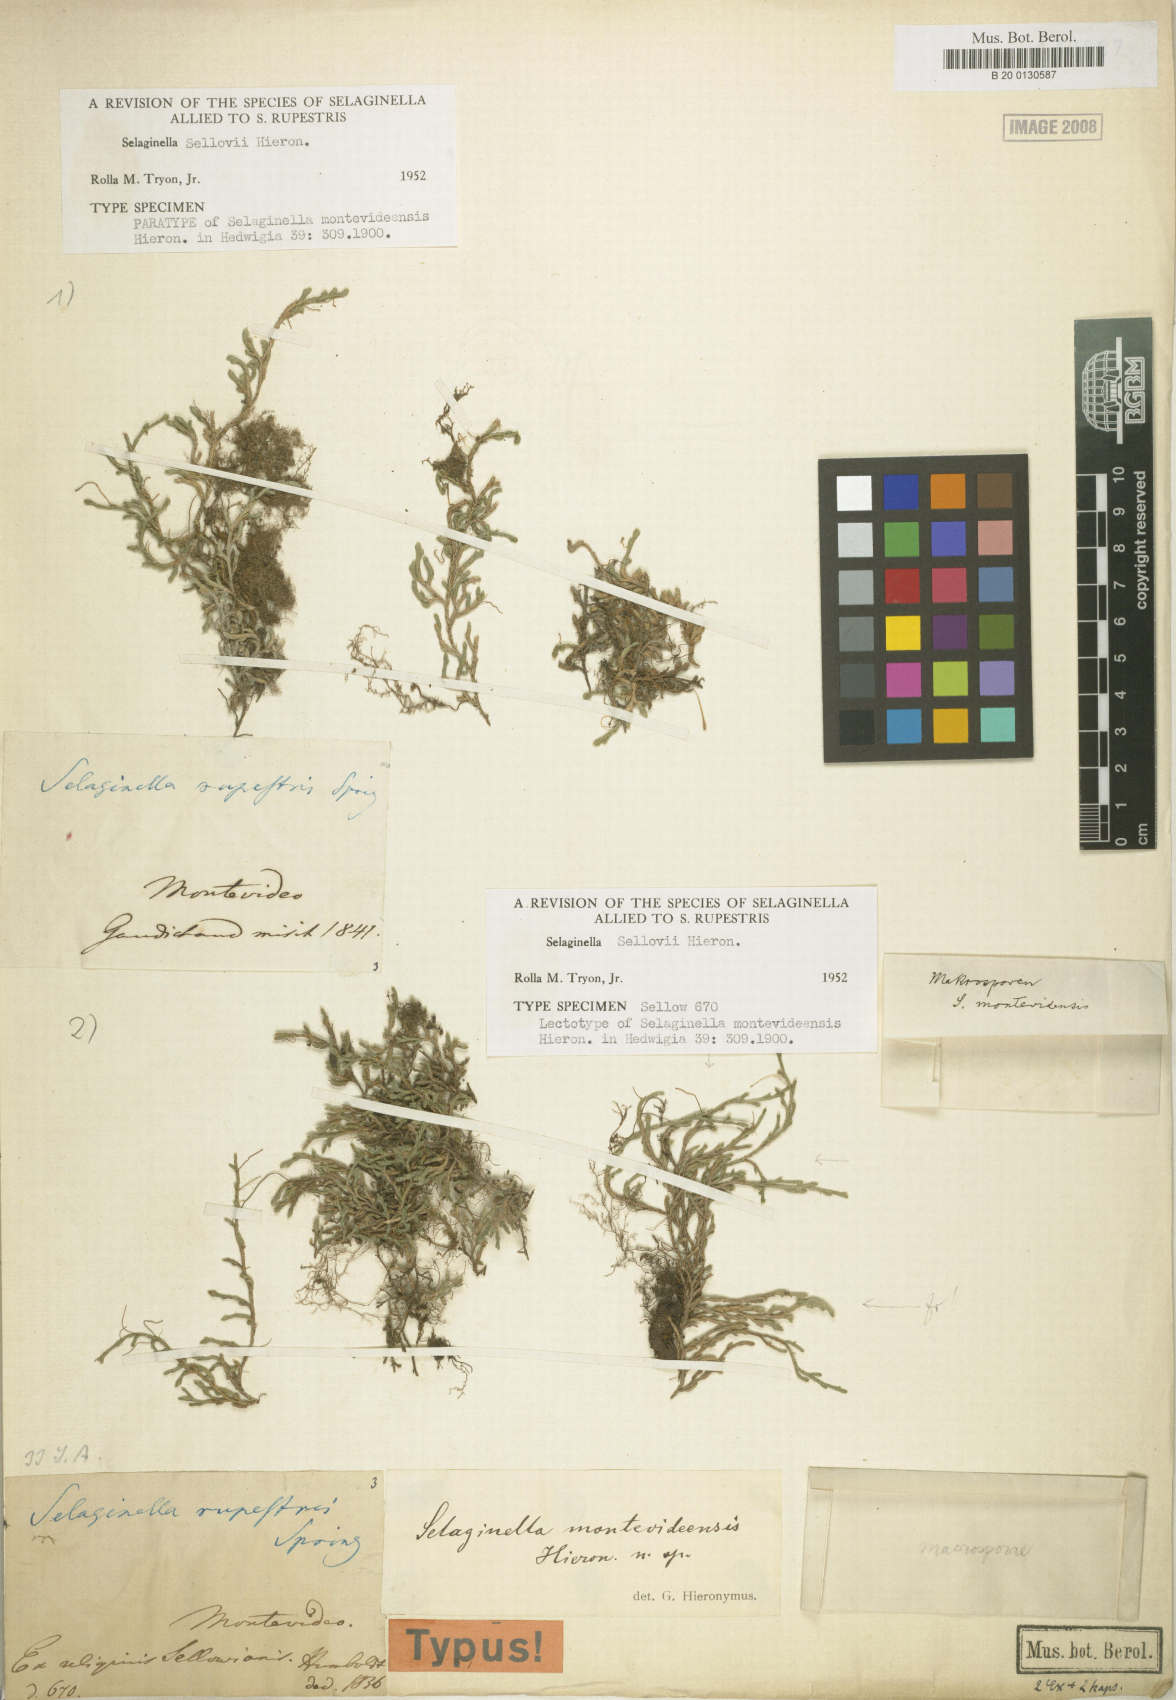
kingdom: Plantae
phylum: Tracheophyta
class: Lycopodiopsida
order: Selaginellales
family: Selaginellaceae
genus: Selaginella
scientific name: Selaginella sellowii
